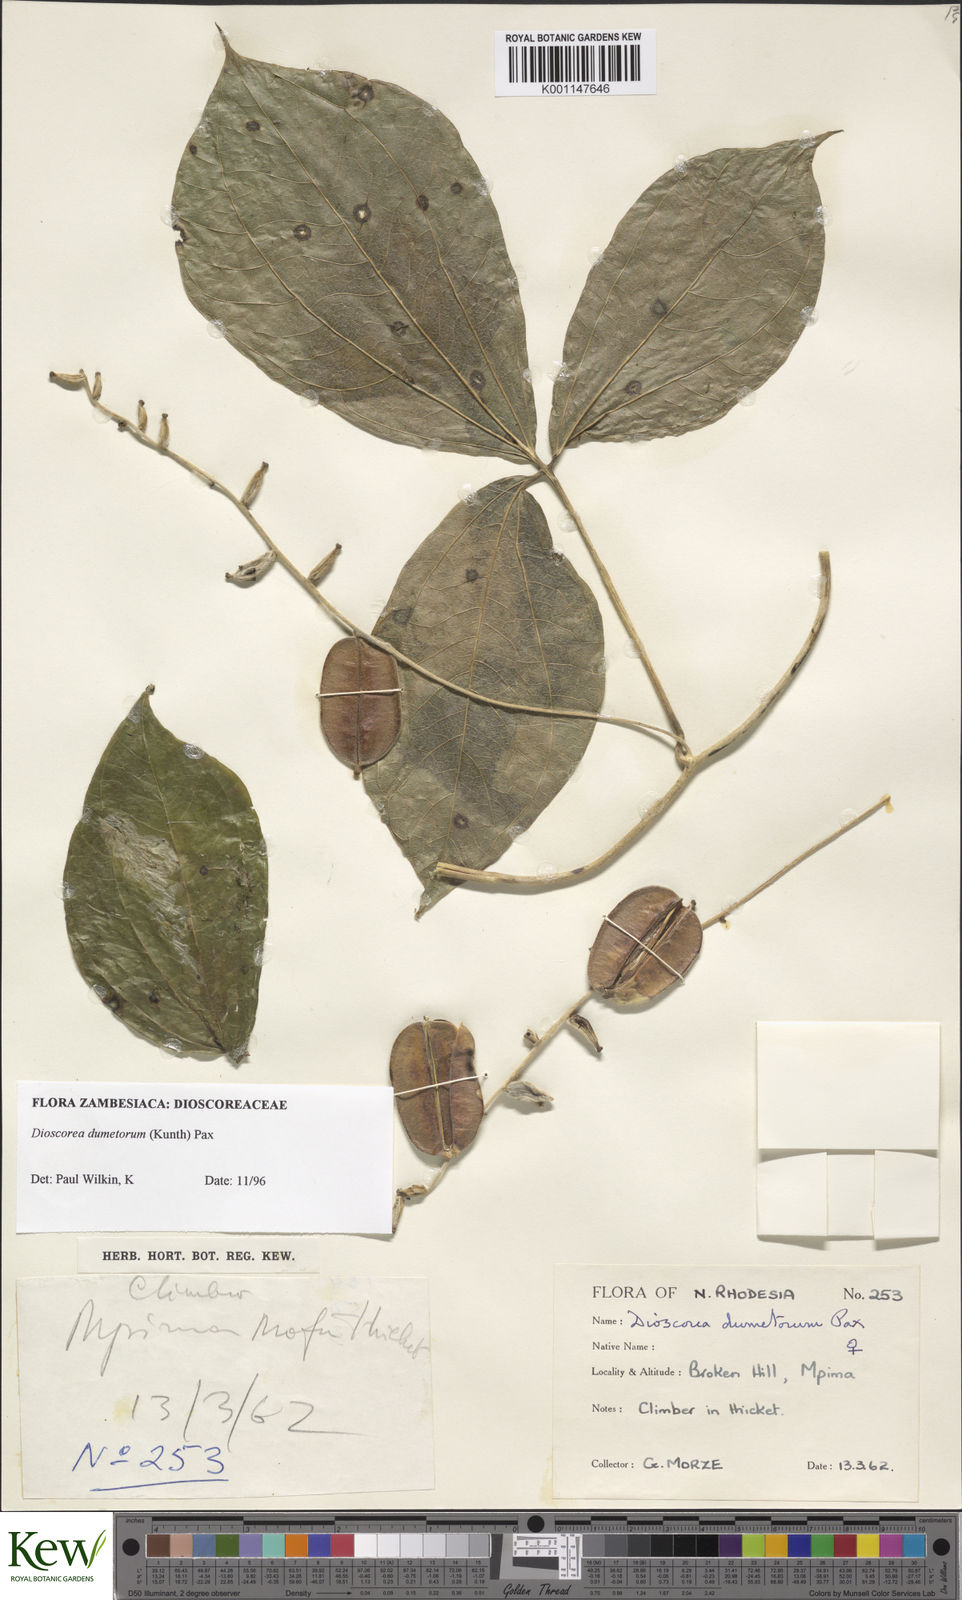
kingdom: Plantae
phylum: Tracheophyta
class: Liliopsida
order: Dioscoreales
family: Dioscoreaceae
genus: Dioscorea
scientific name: Dioscorea dumetorum
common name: African bitter yam
